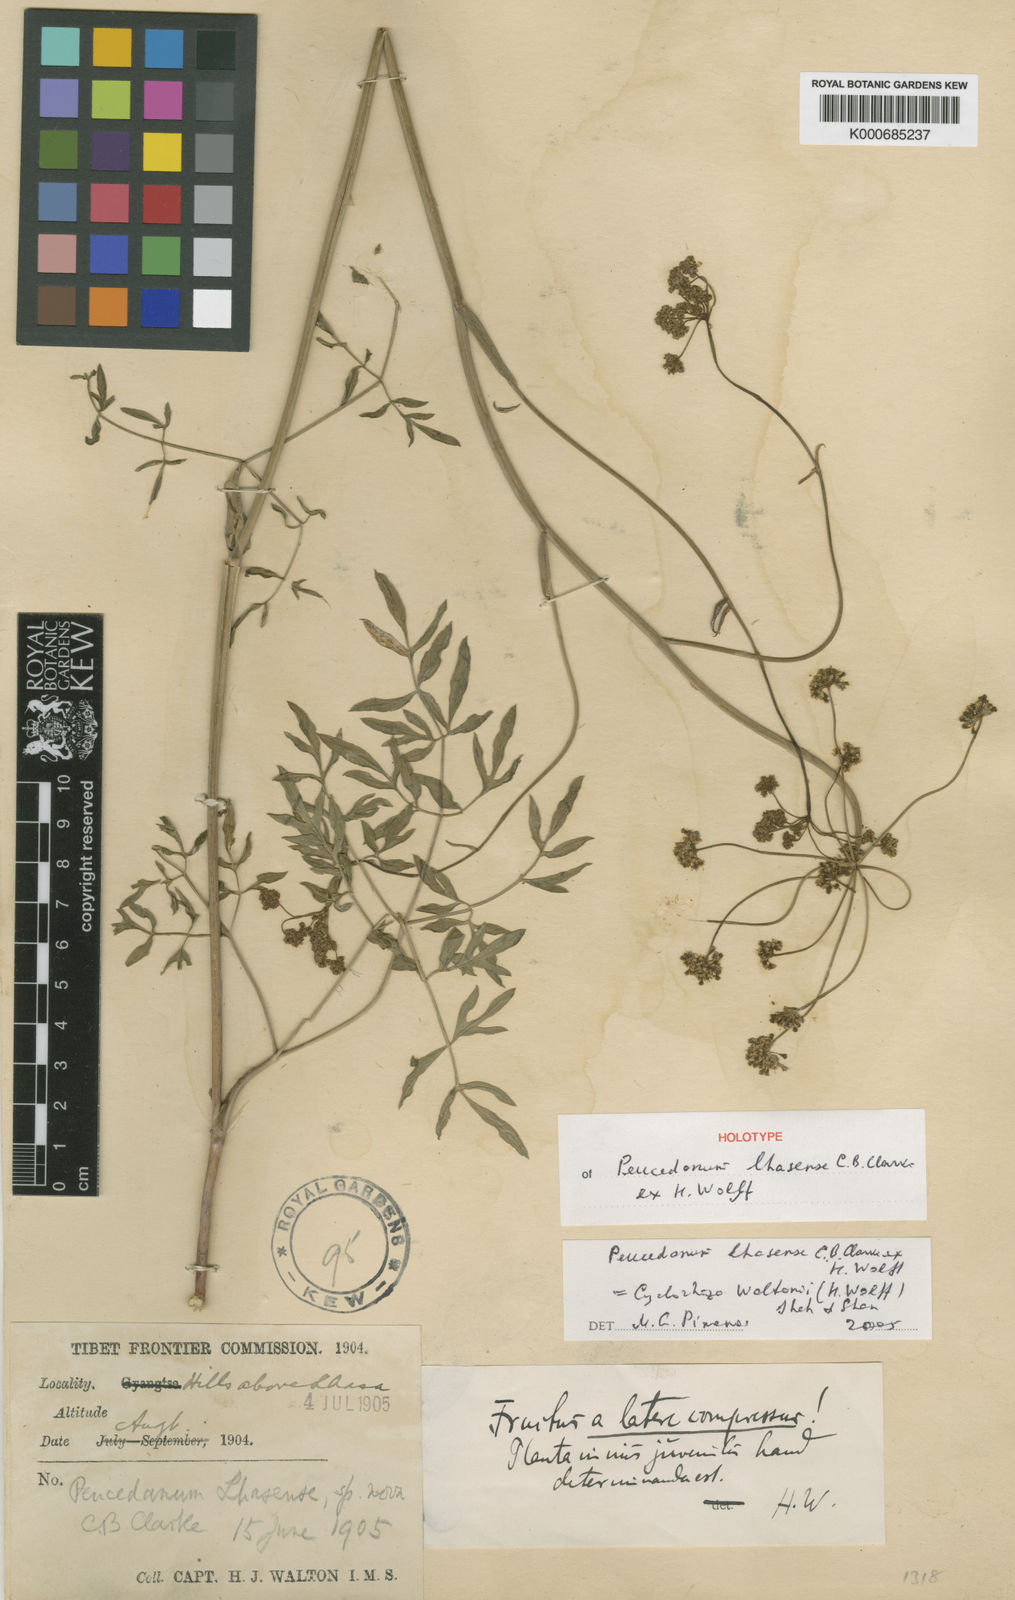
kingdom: Plantae
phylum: Tracheophyta
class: Magnoliopsida
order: Apiales
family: Apiaceae
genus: Cyclorhiza
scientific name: Cyclorhiza waltonii
